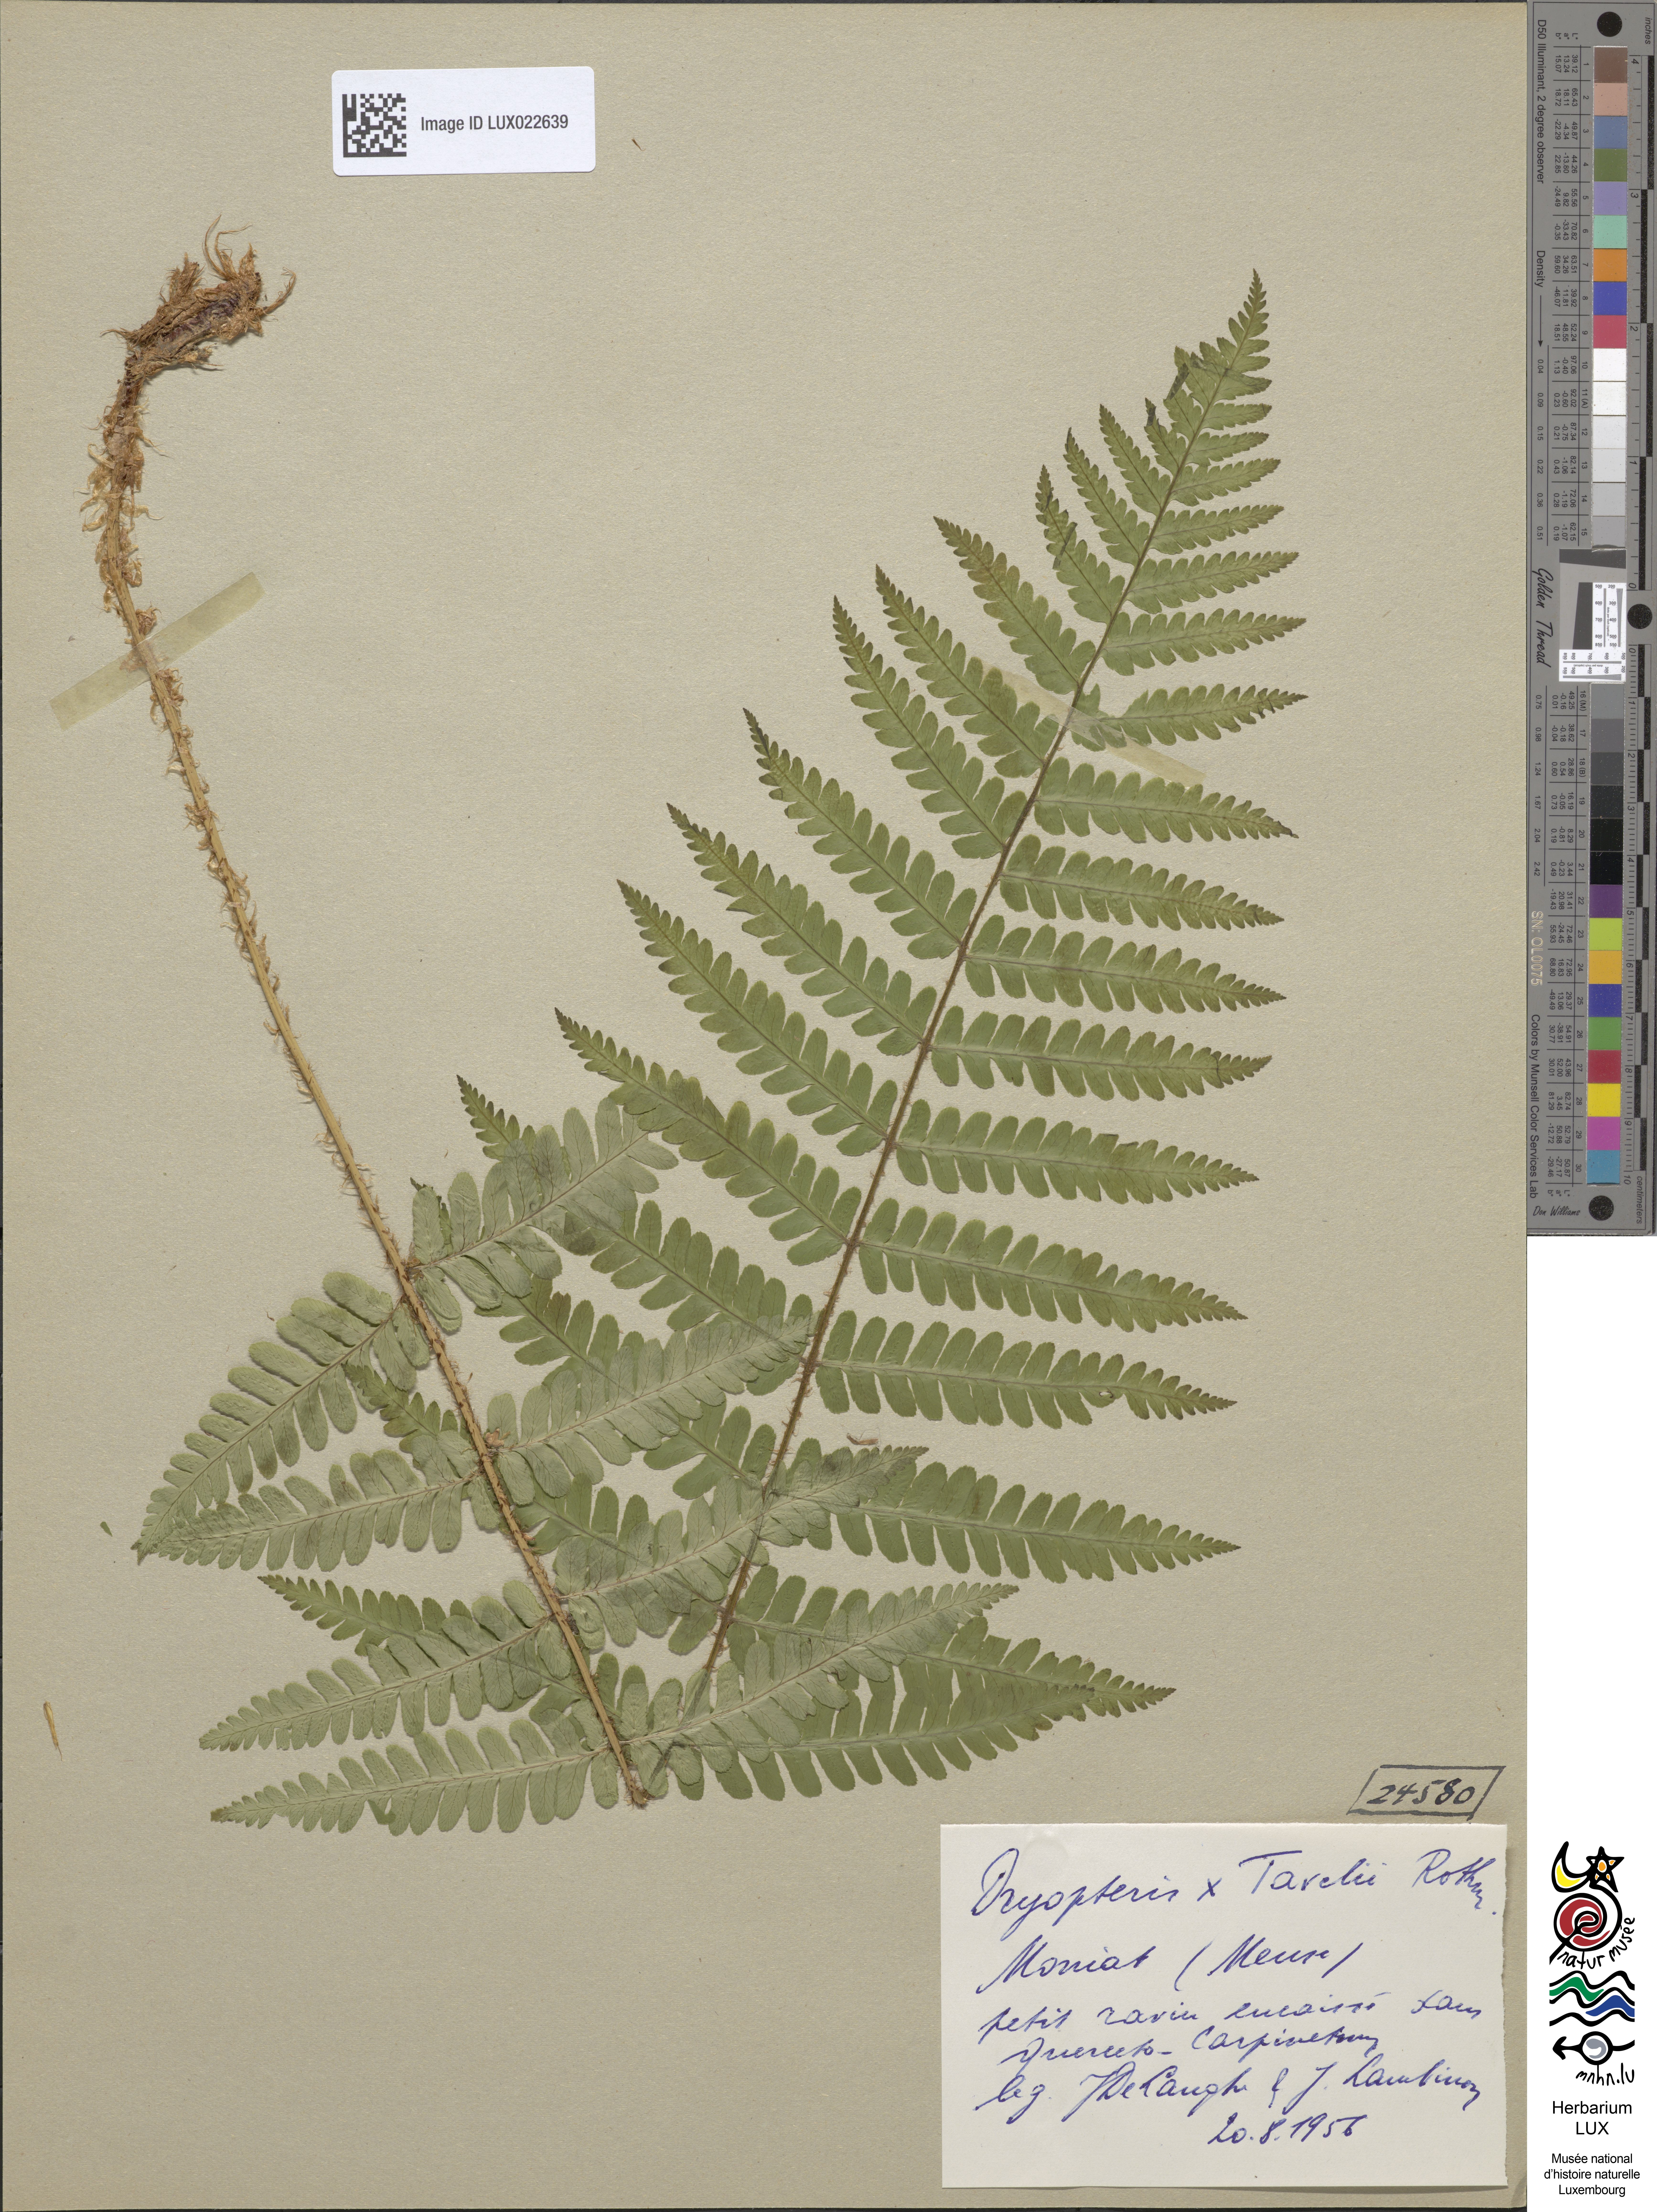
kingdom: Plantae
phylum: Tracheophyta
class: Polypodiopsida
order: Polypodiales
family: Dryopteridaceae
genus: Dryopteris
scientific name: Dryopteris borreri
